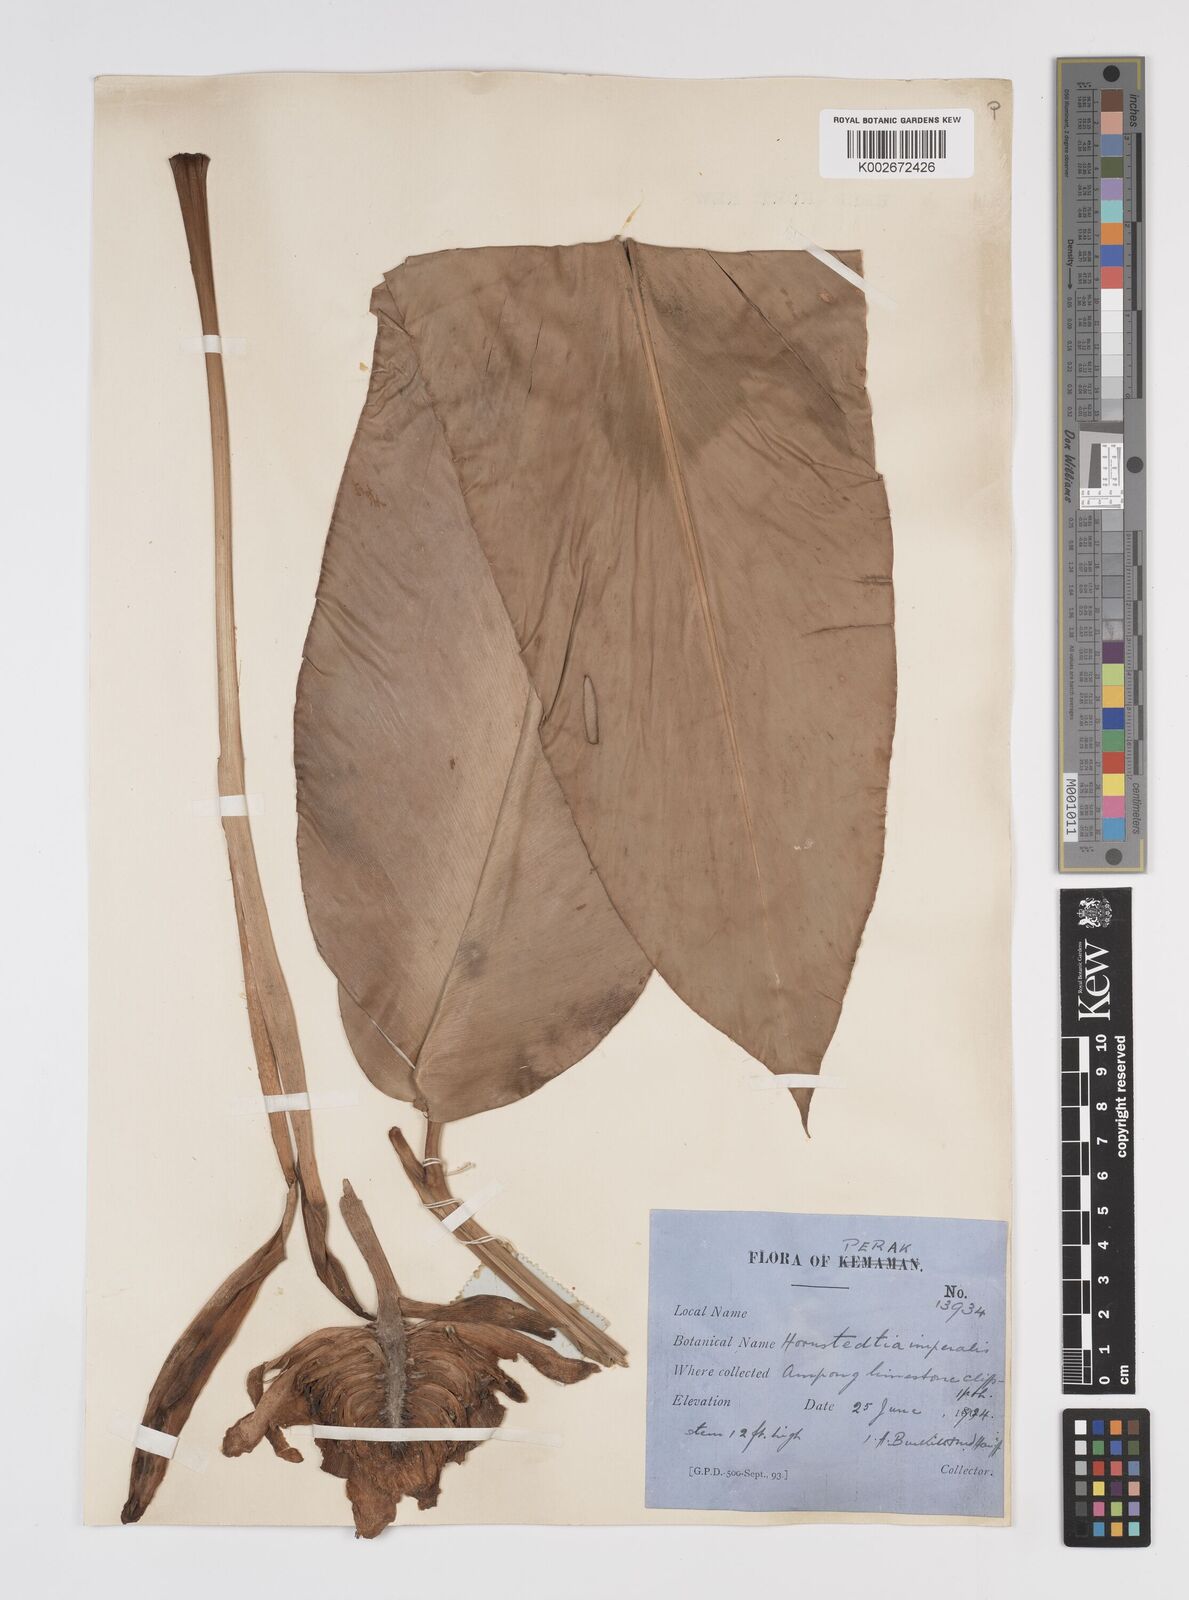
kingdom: Plantae
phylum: Tracheophyta
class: Liliopsida
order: Zingiberales
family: Zingiberaceae
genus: Etlingera
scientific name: Etlingera elatior
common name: Philippine waxflower
